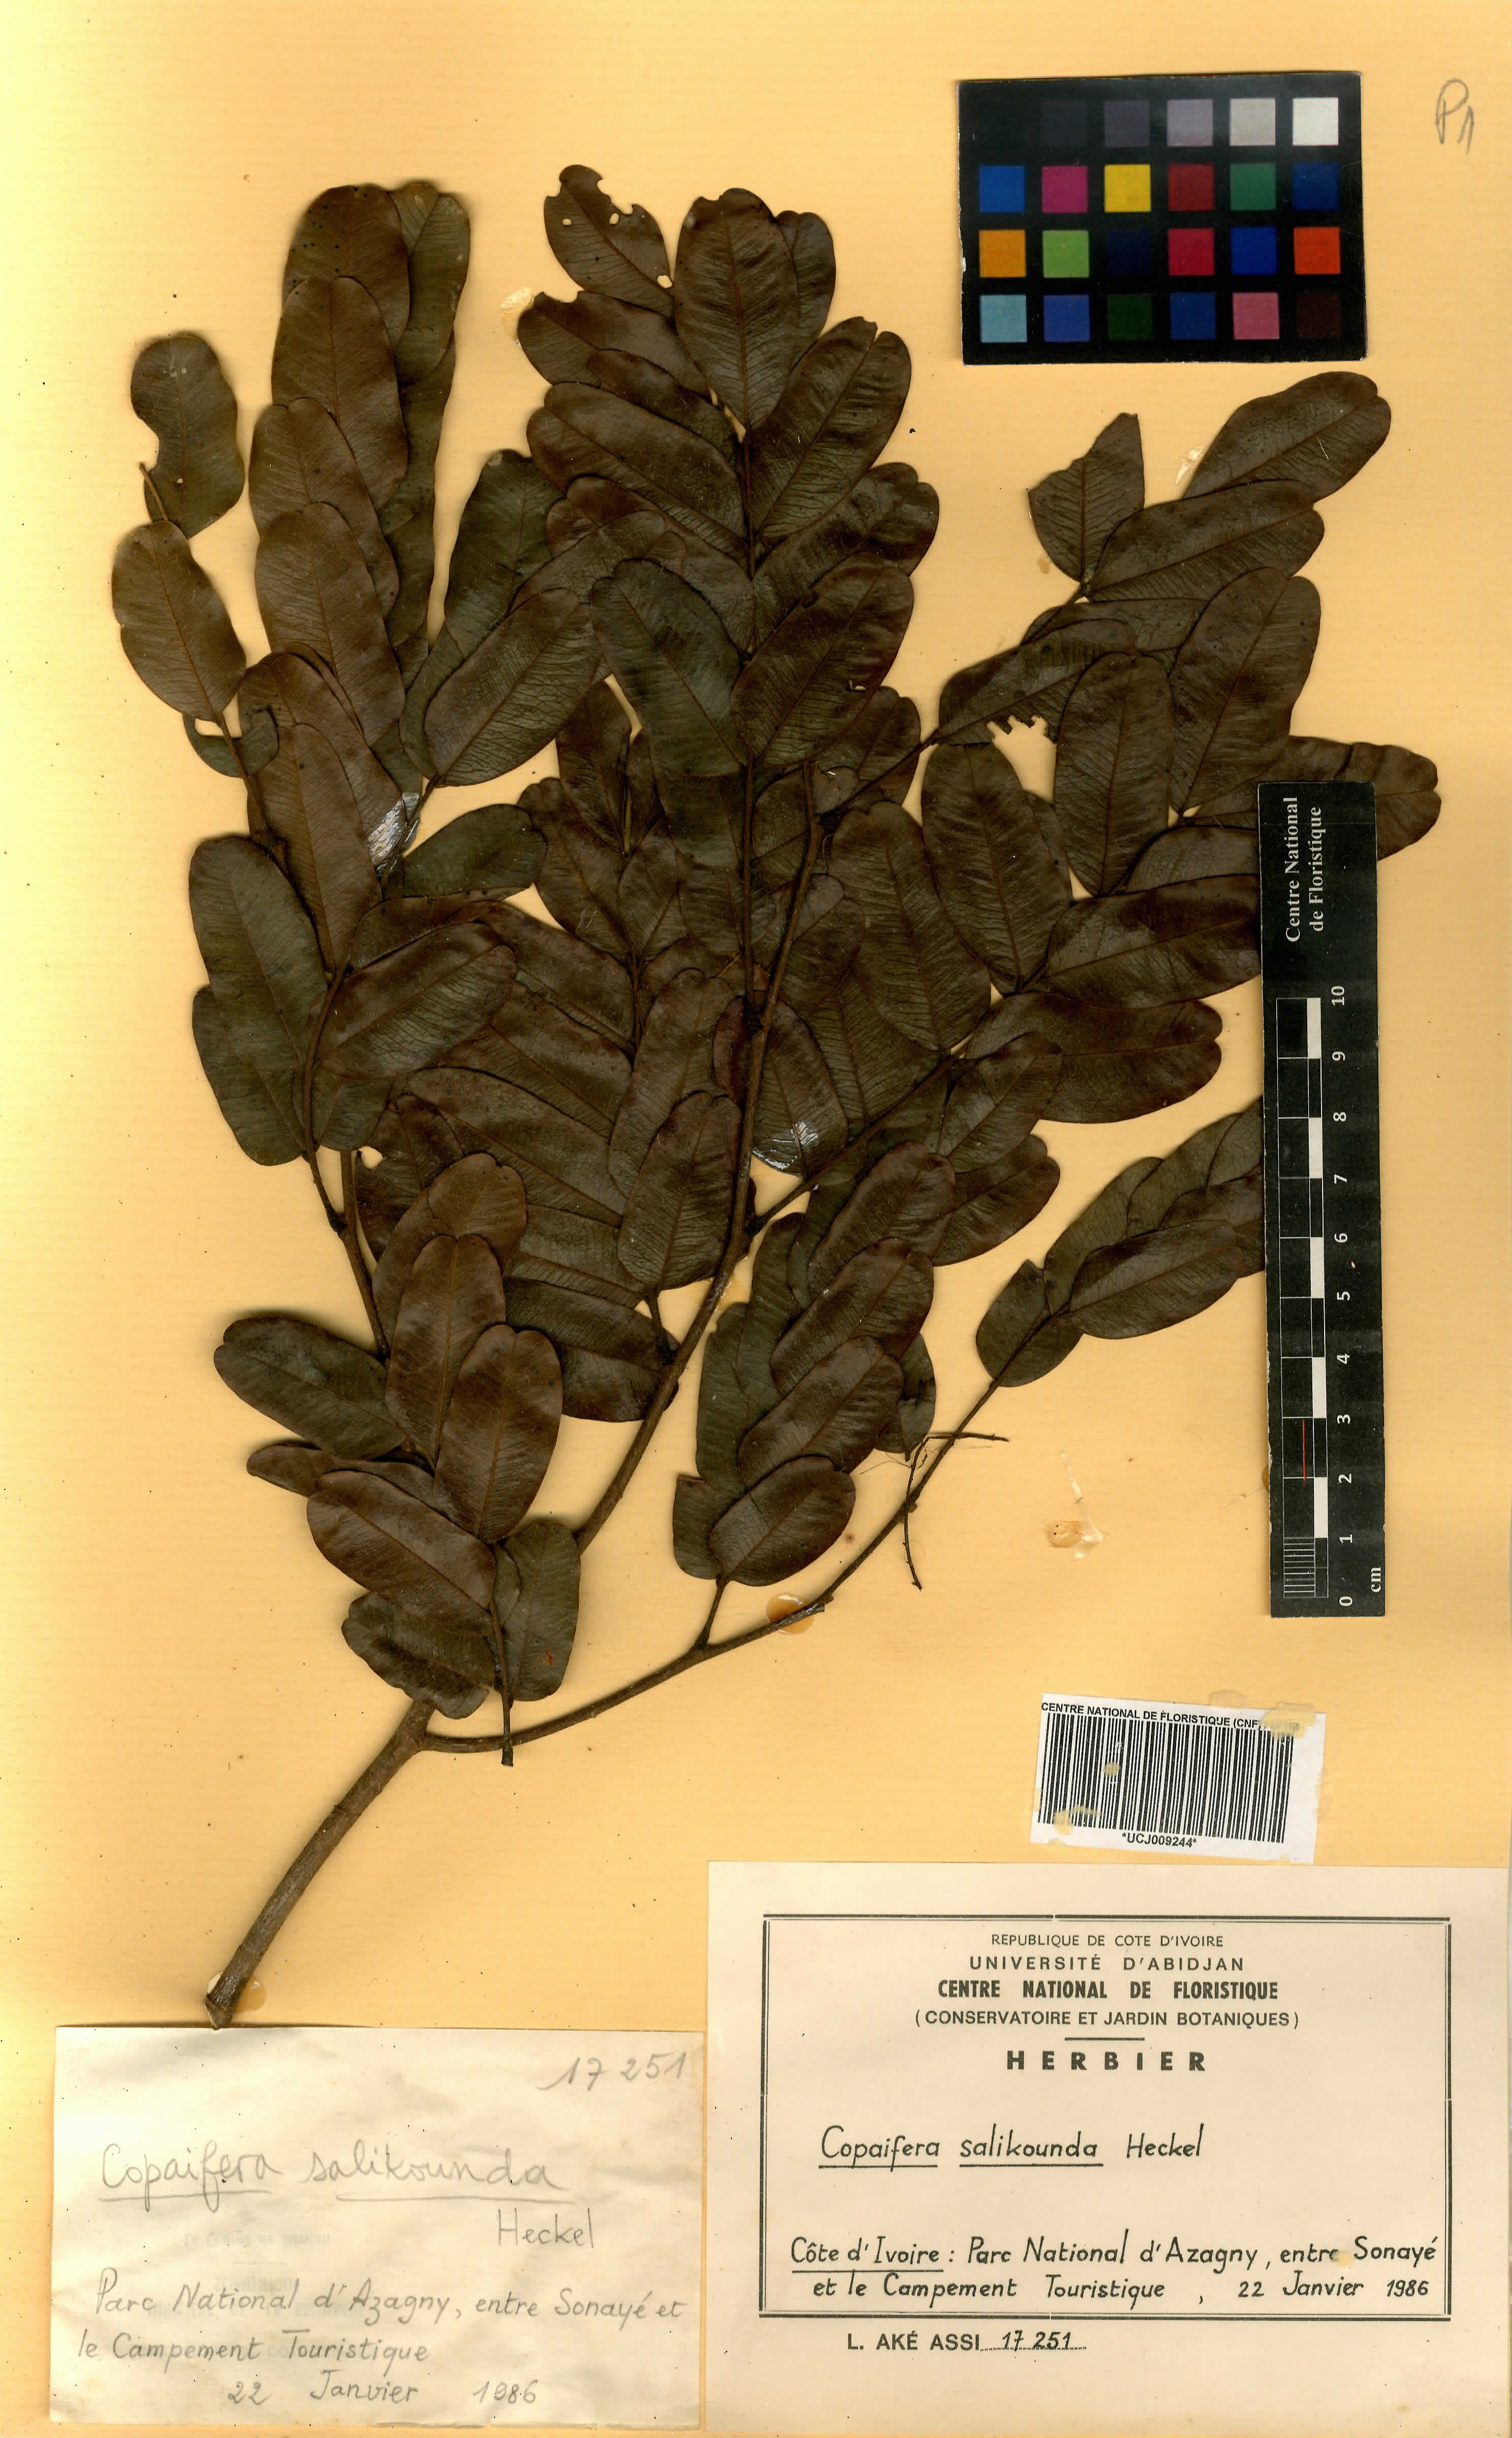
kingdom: Plantae
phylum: Tracheophyta
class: Magnoliopsida
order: Fabales
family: Fabaceae
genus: Copaifera
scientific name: Copaifera salikounda
